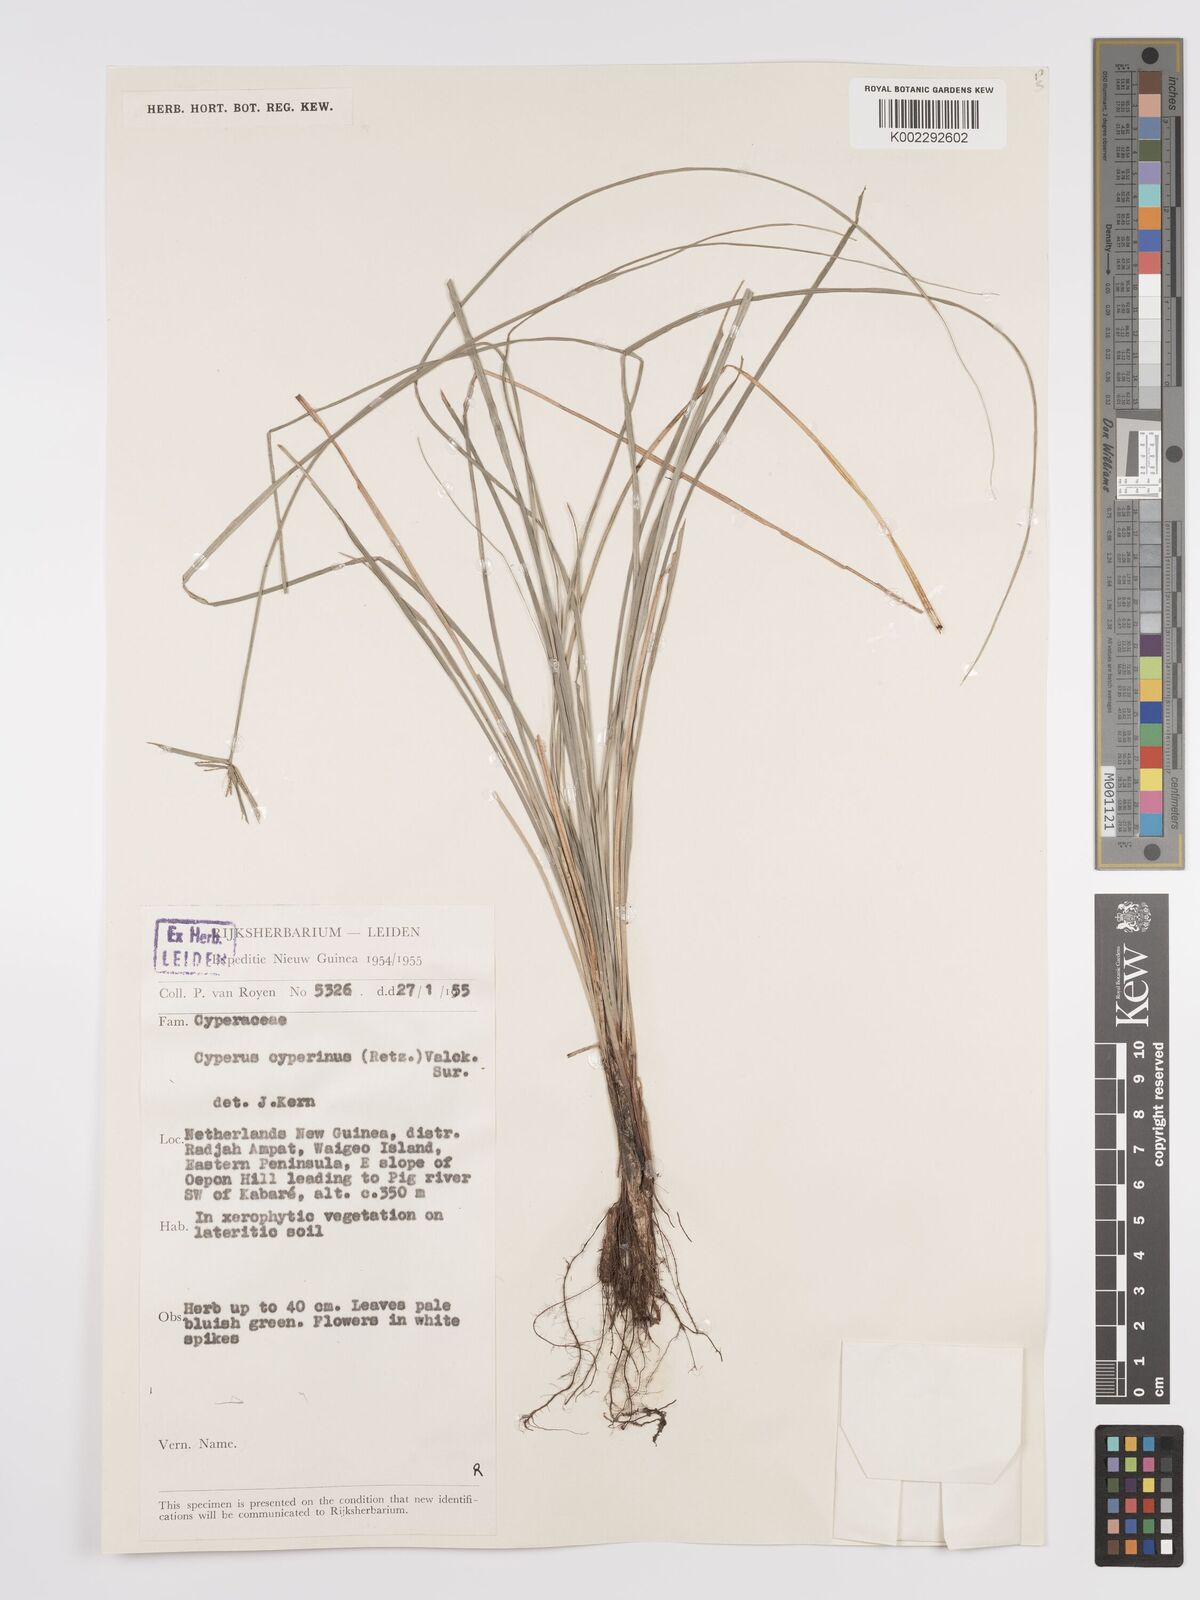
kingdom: Plantae
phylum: Tracheophyta
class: Liliopsida
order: Poales
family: Cyperaceae
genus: Cyperus
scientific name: Cyperus cyperinus
